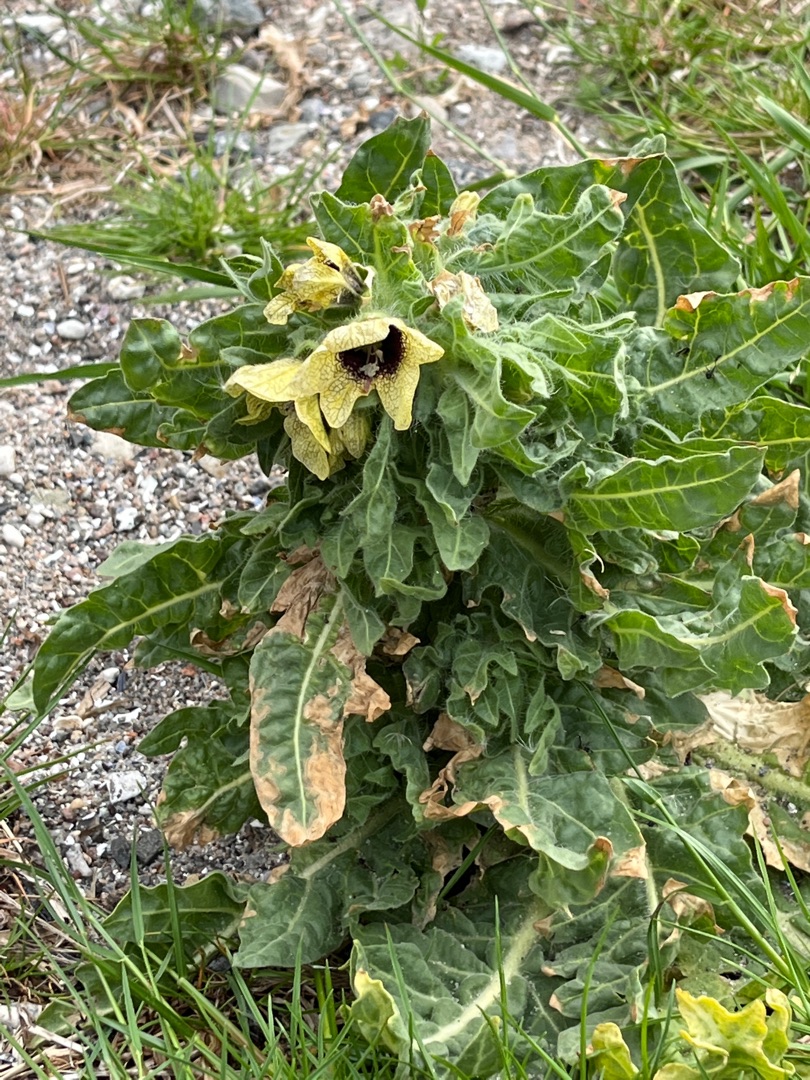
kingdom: Plantae
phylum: Tracheophyta
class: Magnoliopsida
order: Solanales
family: Solanaceae
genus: Hyoscyamus
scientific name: Hyoscyamus niger
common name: Bulmeurt
